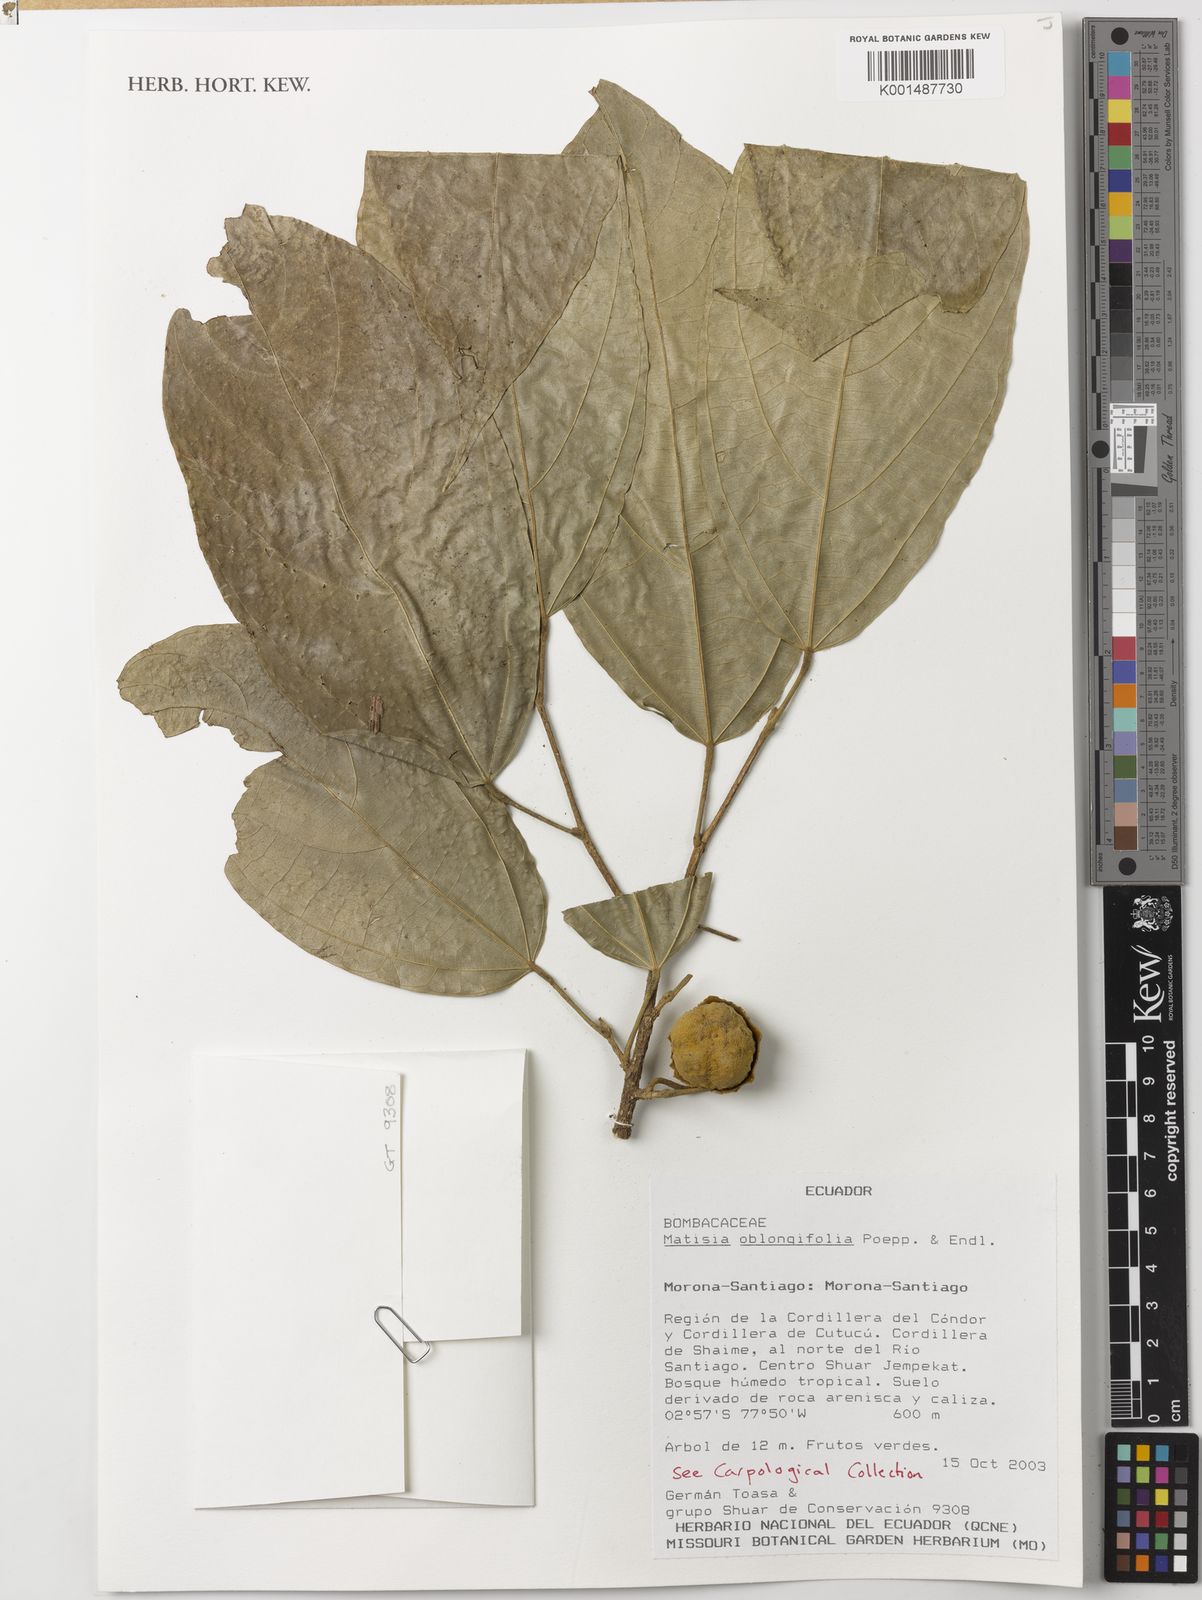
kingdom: Plantae
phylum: Tracheophyta
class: Magnoliopsida
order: Malvales
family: Malvaceae
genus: Matisia
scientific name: Matisia oblongifolia
